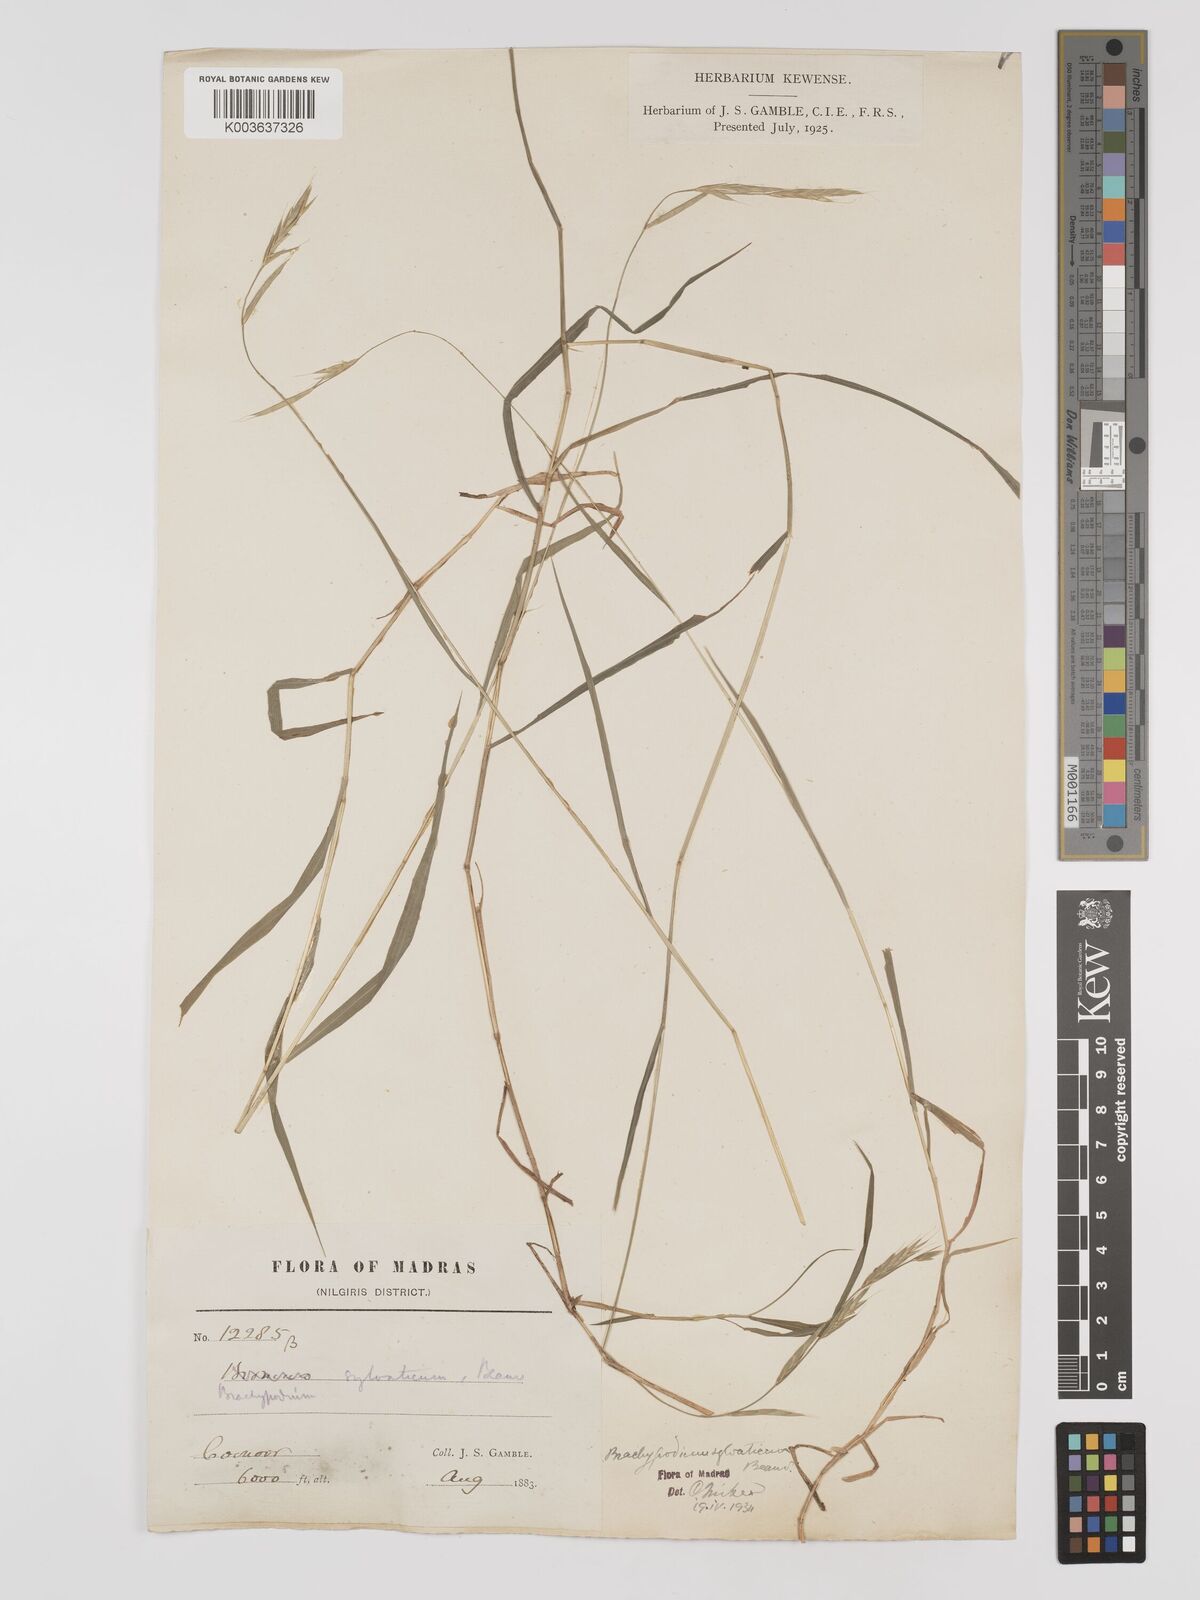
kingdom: Plantae
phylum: Tracheophyta
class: Liliopsida
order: Poales
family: Poaceae
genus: Brachypodium
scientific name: Brachypodium sylvaticum
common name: False-brome
